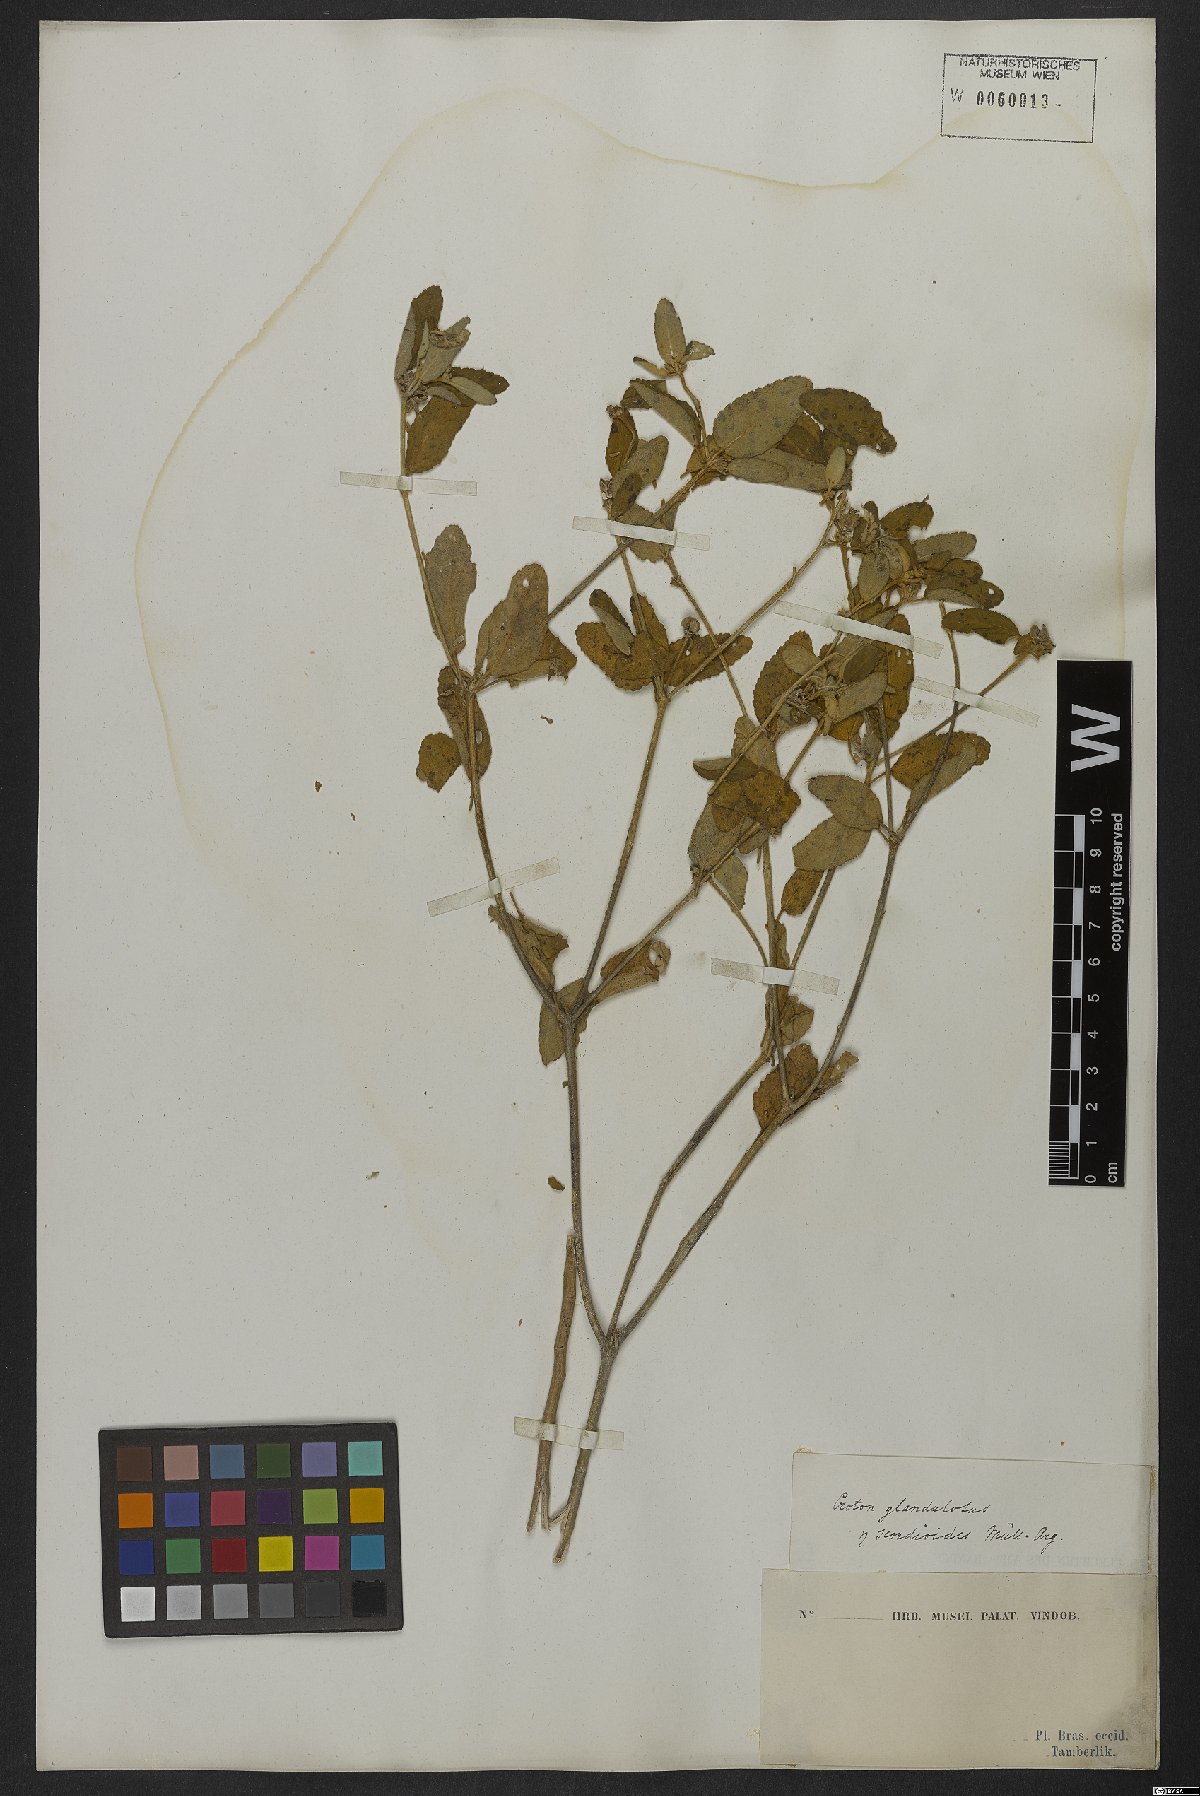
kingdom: Plantae
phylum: Tracheophyta
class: Magnoliopsida
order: Malpighiales
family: Euphorbiaceae
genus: Croton
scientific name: Croton glandulosus
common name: Tropic croton
